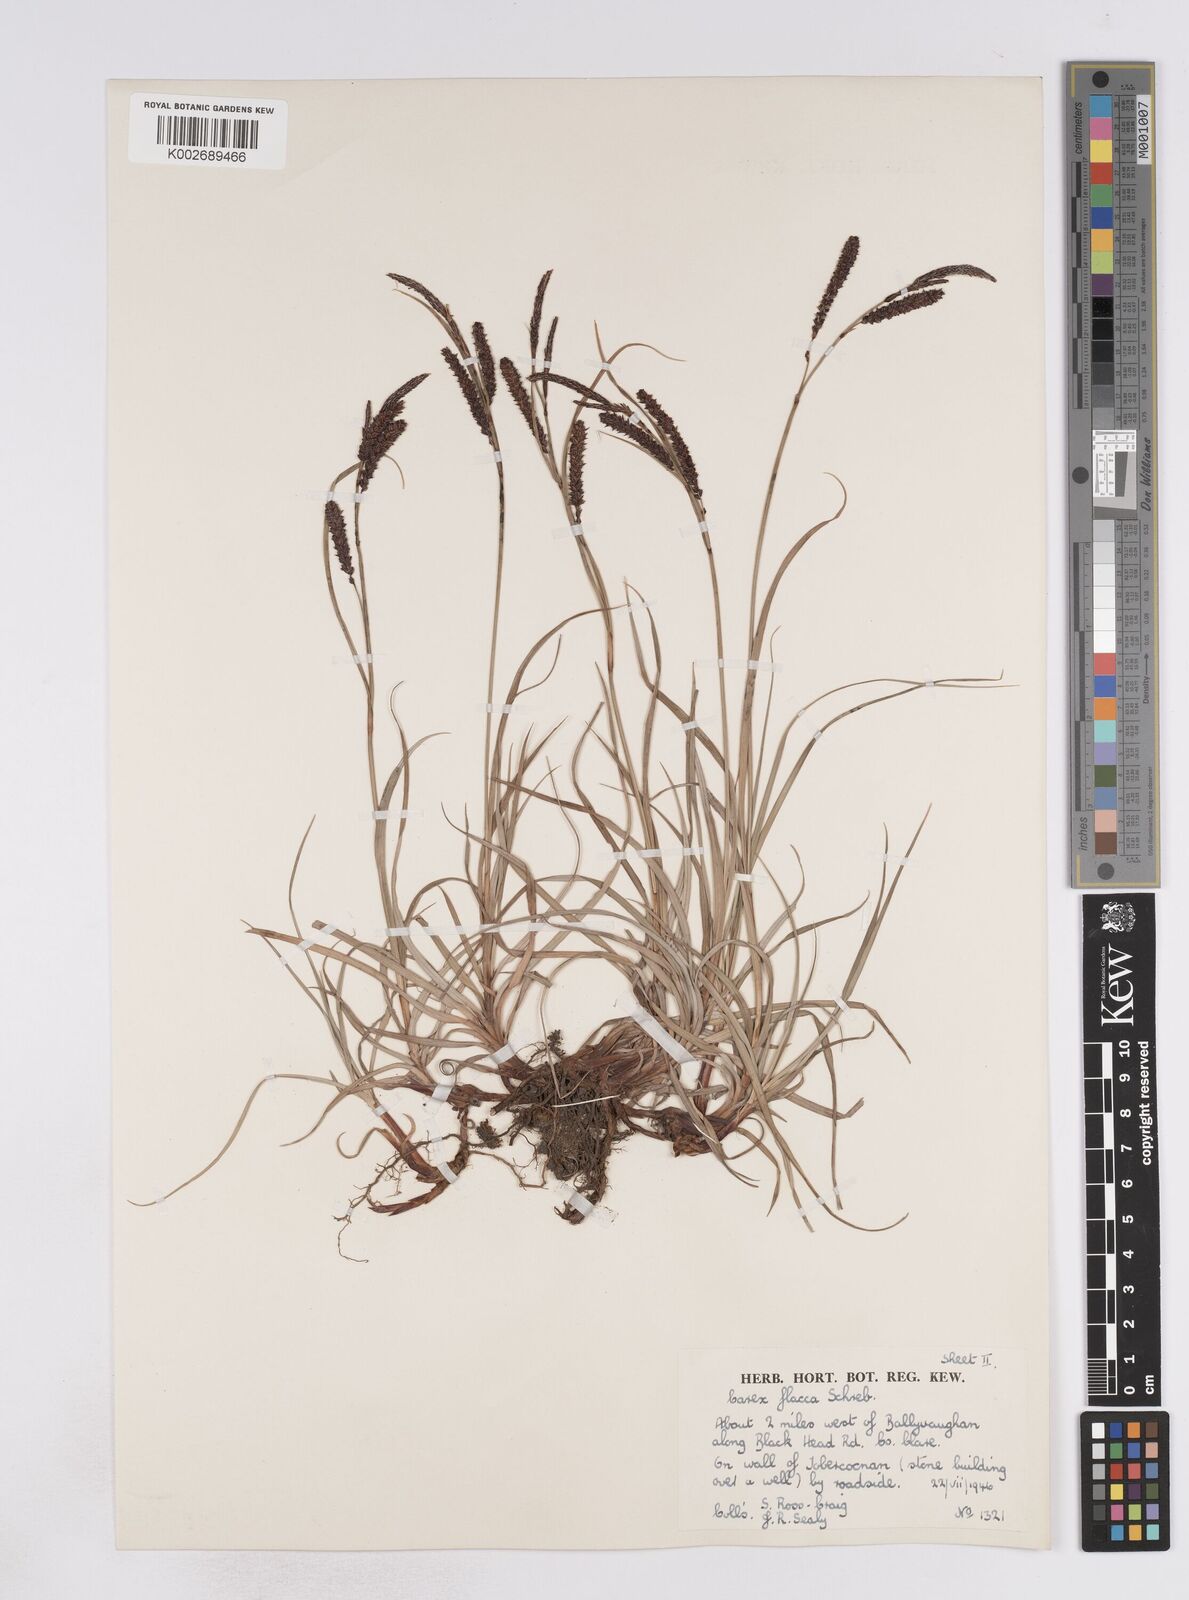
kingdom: Plantae
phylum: Tracheophyta
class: Liliopsida
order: Poales
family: Cyperaceae
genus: Carex
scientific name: Carex flacca
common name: Glaucous sedge
